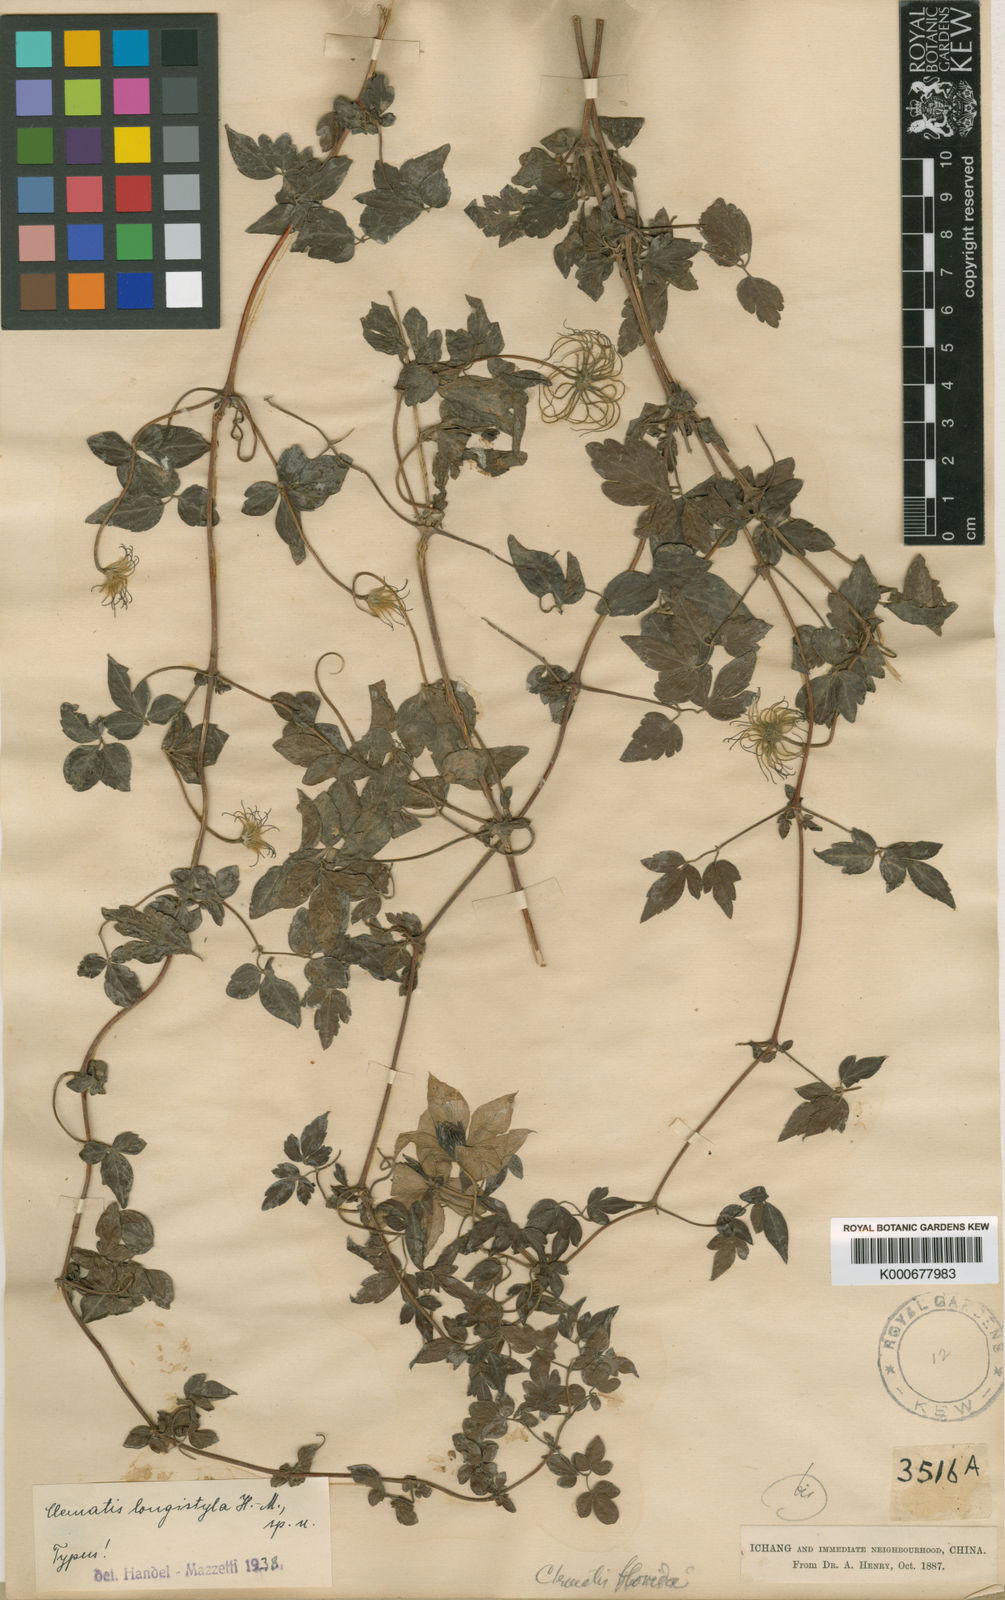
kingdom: Plantae
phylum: Tracheophyta
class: Magnoliopsida
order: Ranunculales
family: Ranunculaceae
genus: Clematis
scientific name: Clematis longistyla
